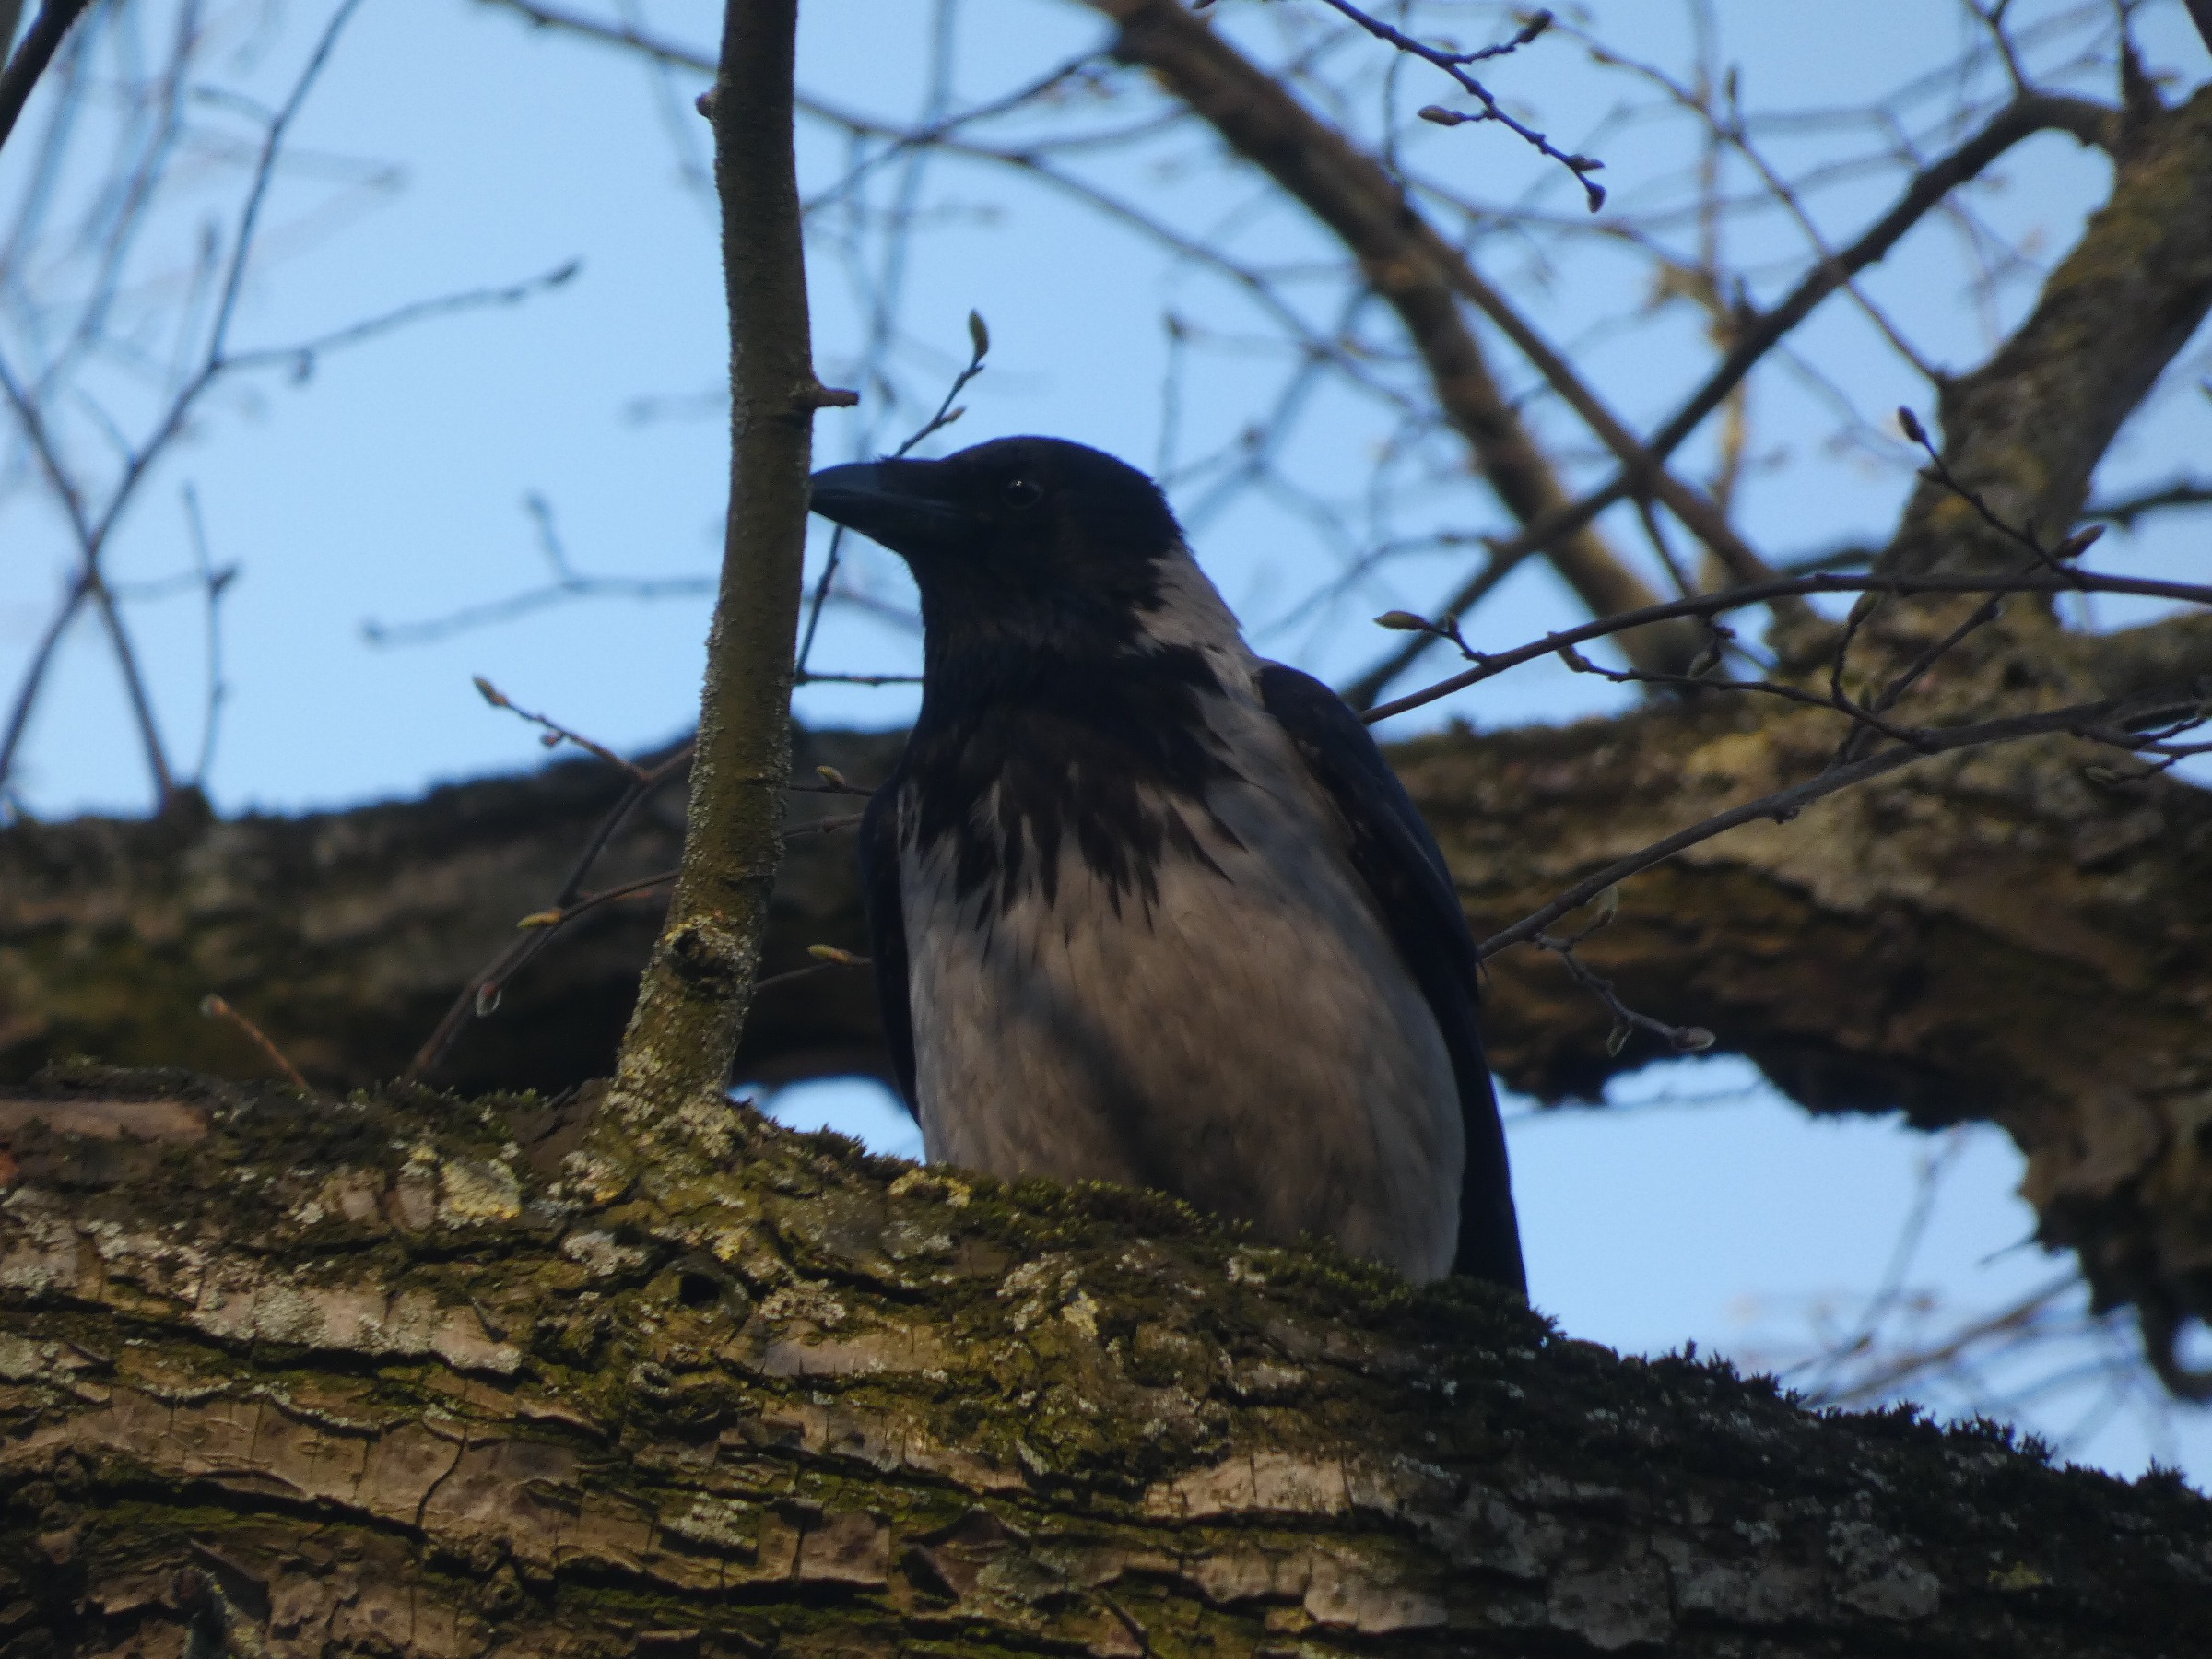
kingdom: Animalia
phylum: Chordata
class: Aves
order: Passeriformes
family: Corvidae
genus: Corvus
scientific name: Corvus cornix
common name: Gråkrage
